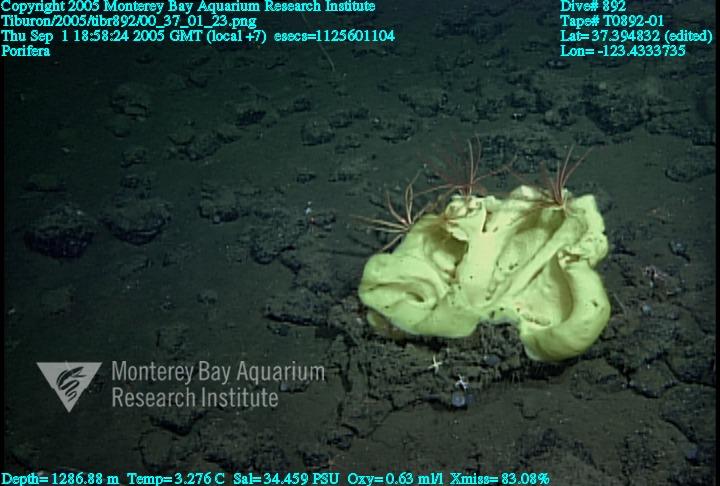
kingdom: Animalia
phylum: Porifera
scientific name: Porifera
